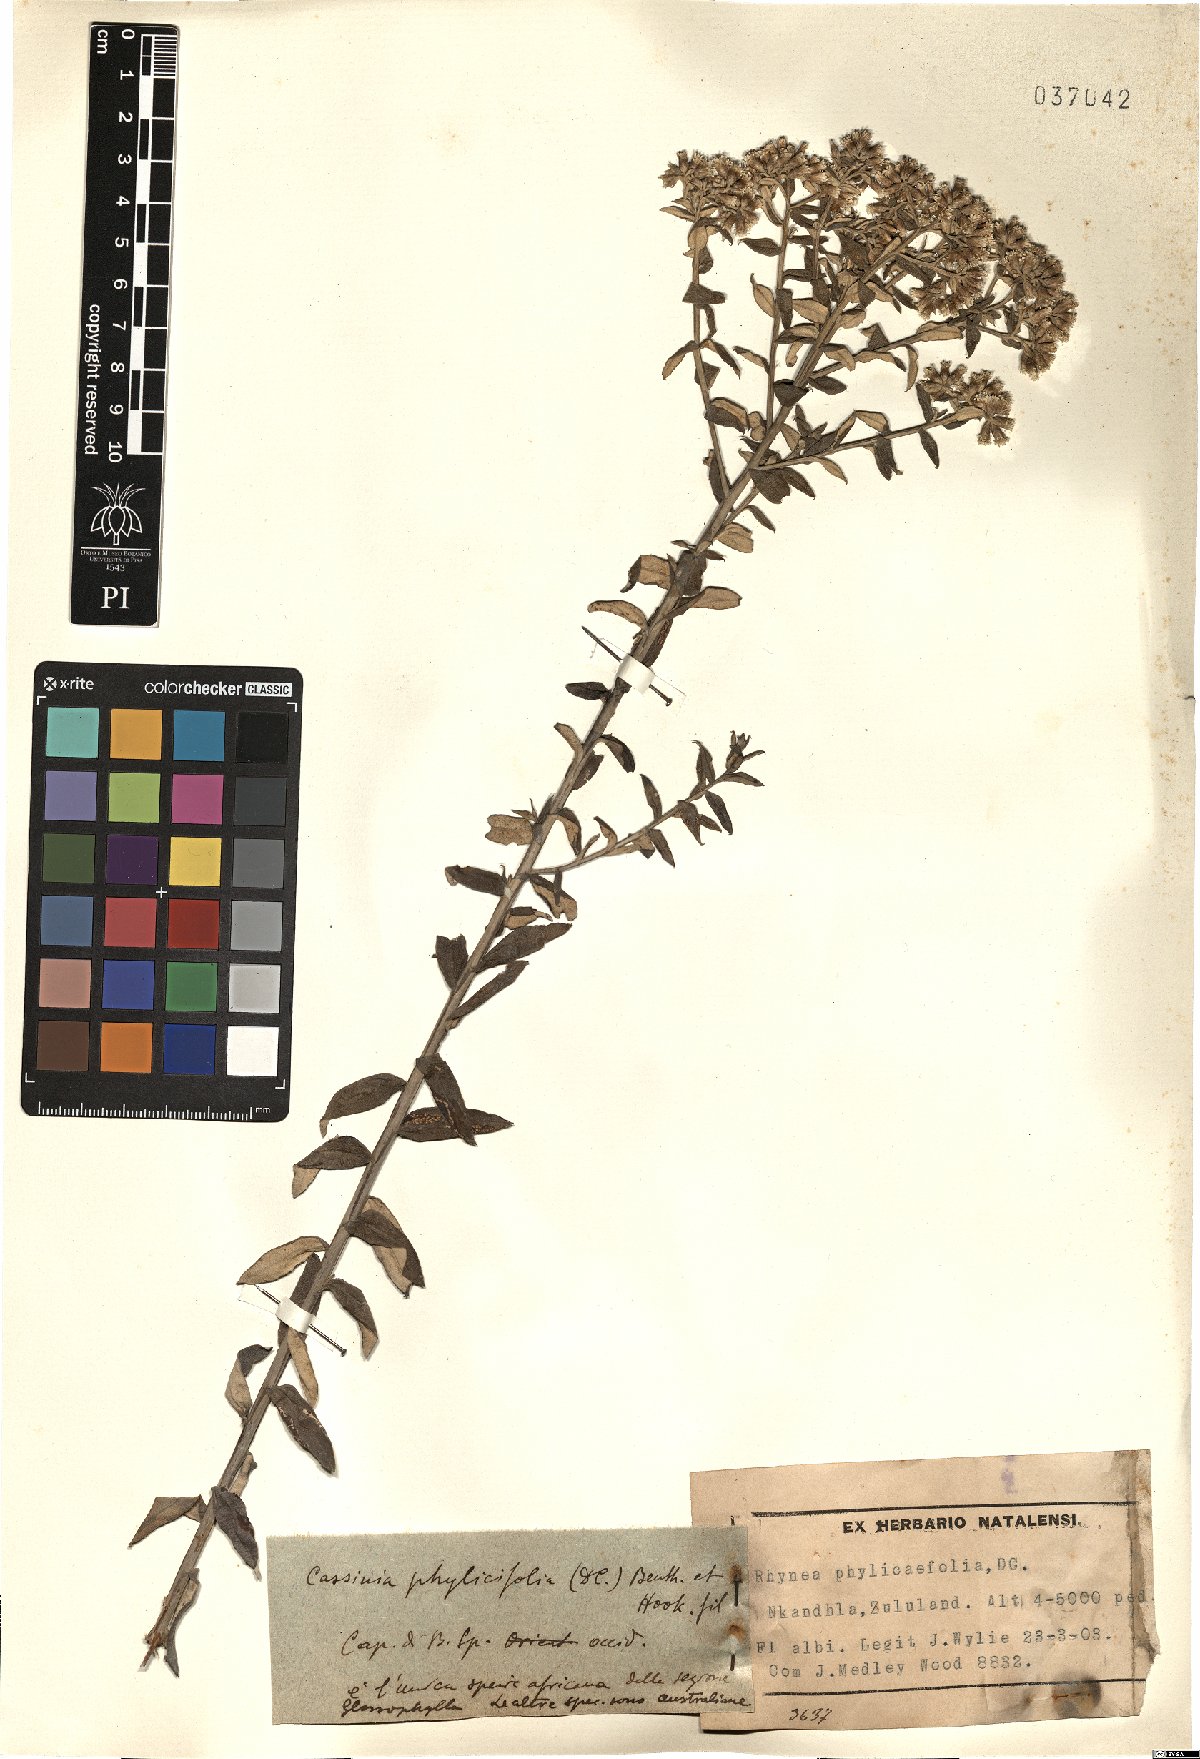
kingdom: Plantae
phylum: Tracheophyta
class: Magnoliopsida
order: Asterales
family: Asteraceae
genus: Tenrhynea
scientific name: Tenrhynea phylicifolia
